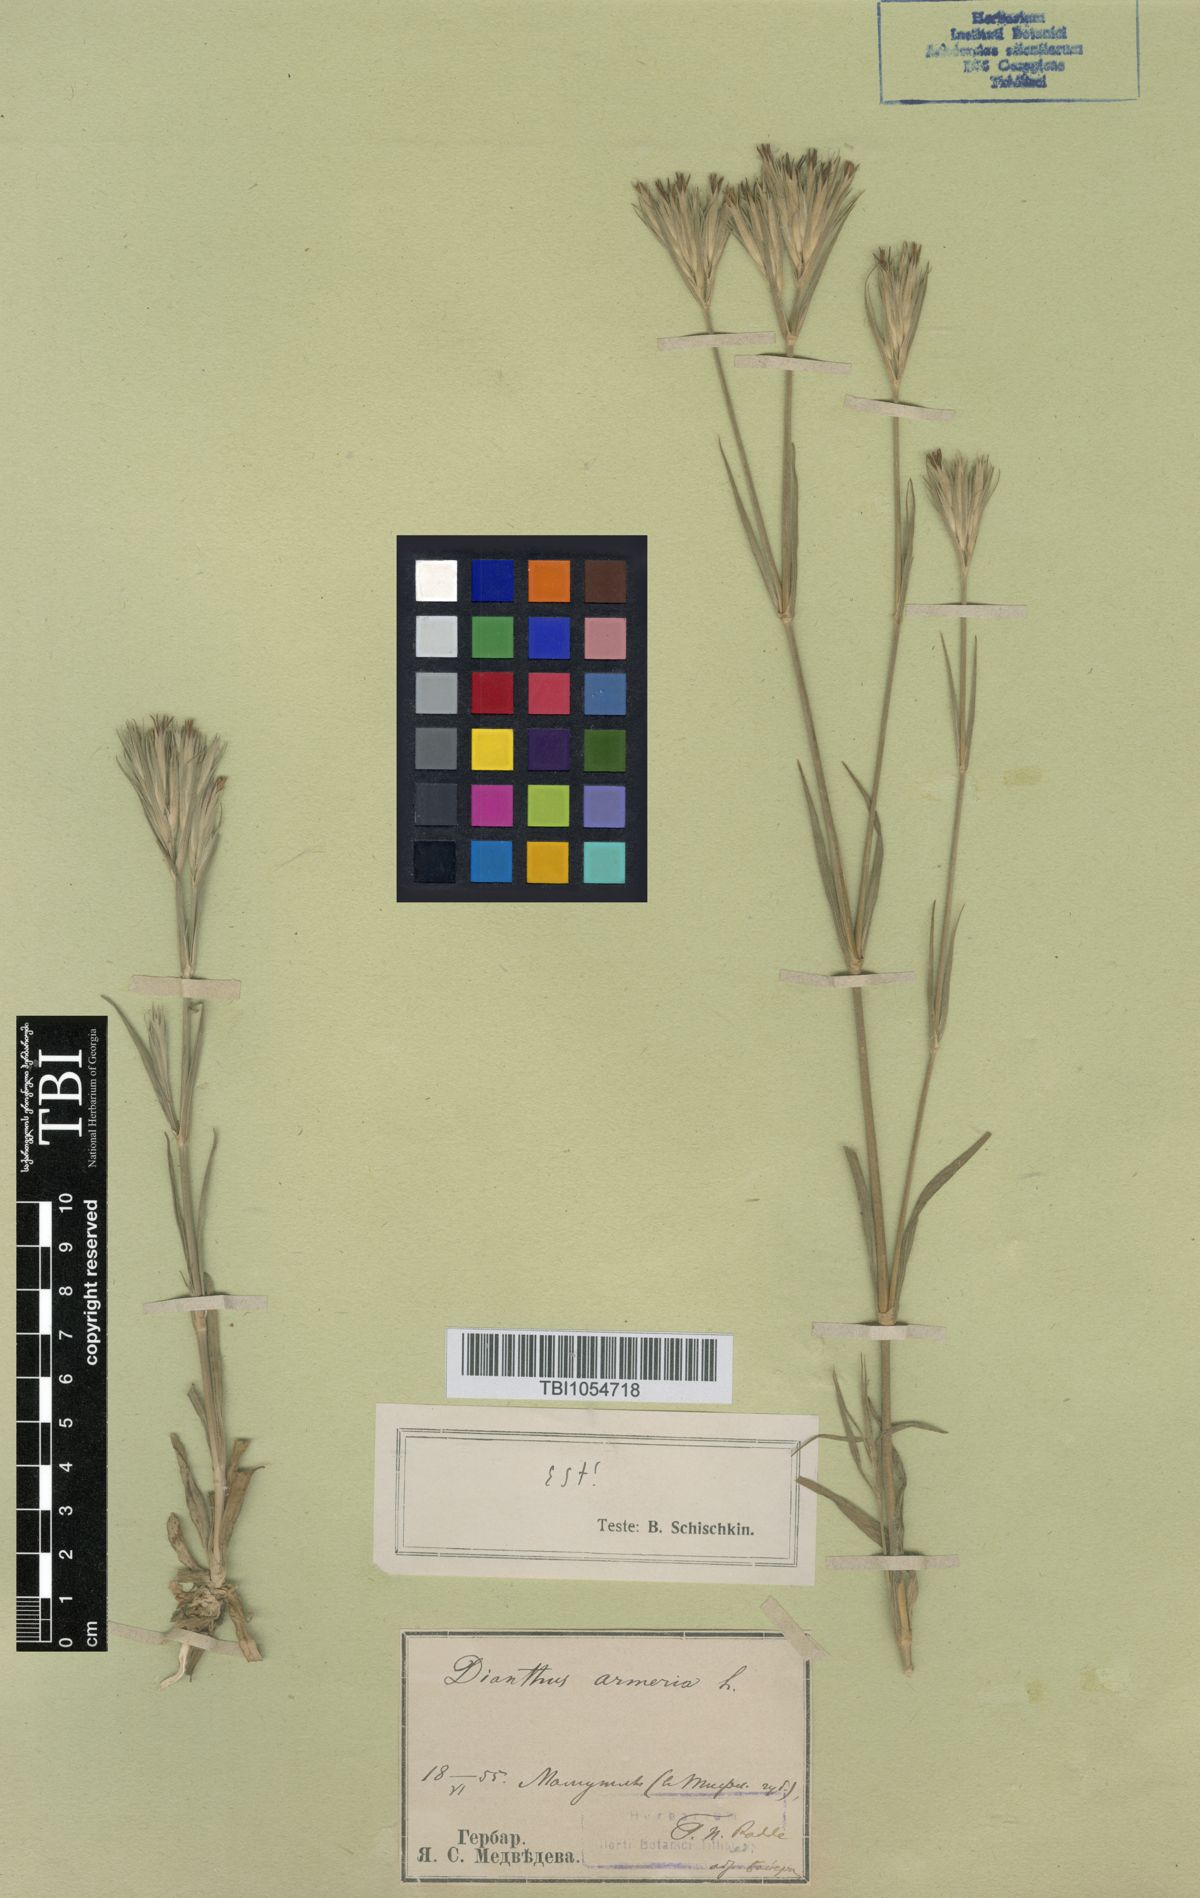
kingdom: Plantae
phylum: Tracheophyta
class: Magnoliopsida
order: Caryophyllales
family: Caryophyllaceae
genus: Dianthus
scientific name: Dianthus armeria
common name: Deptford pink
